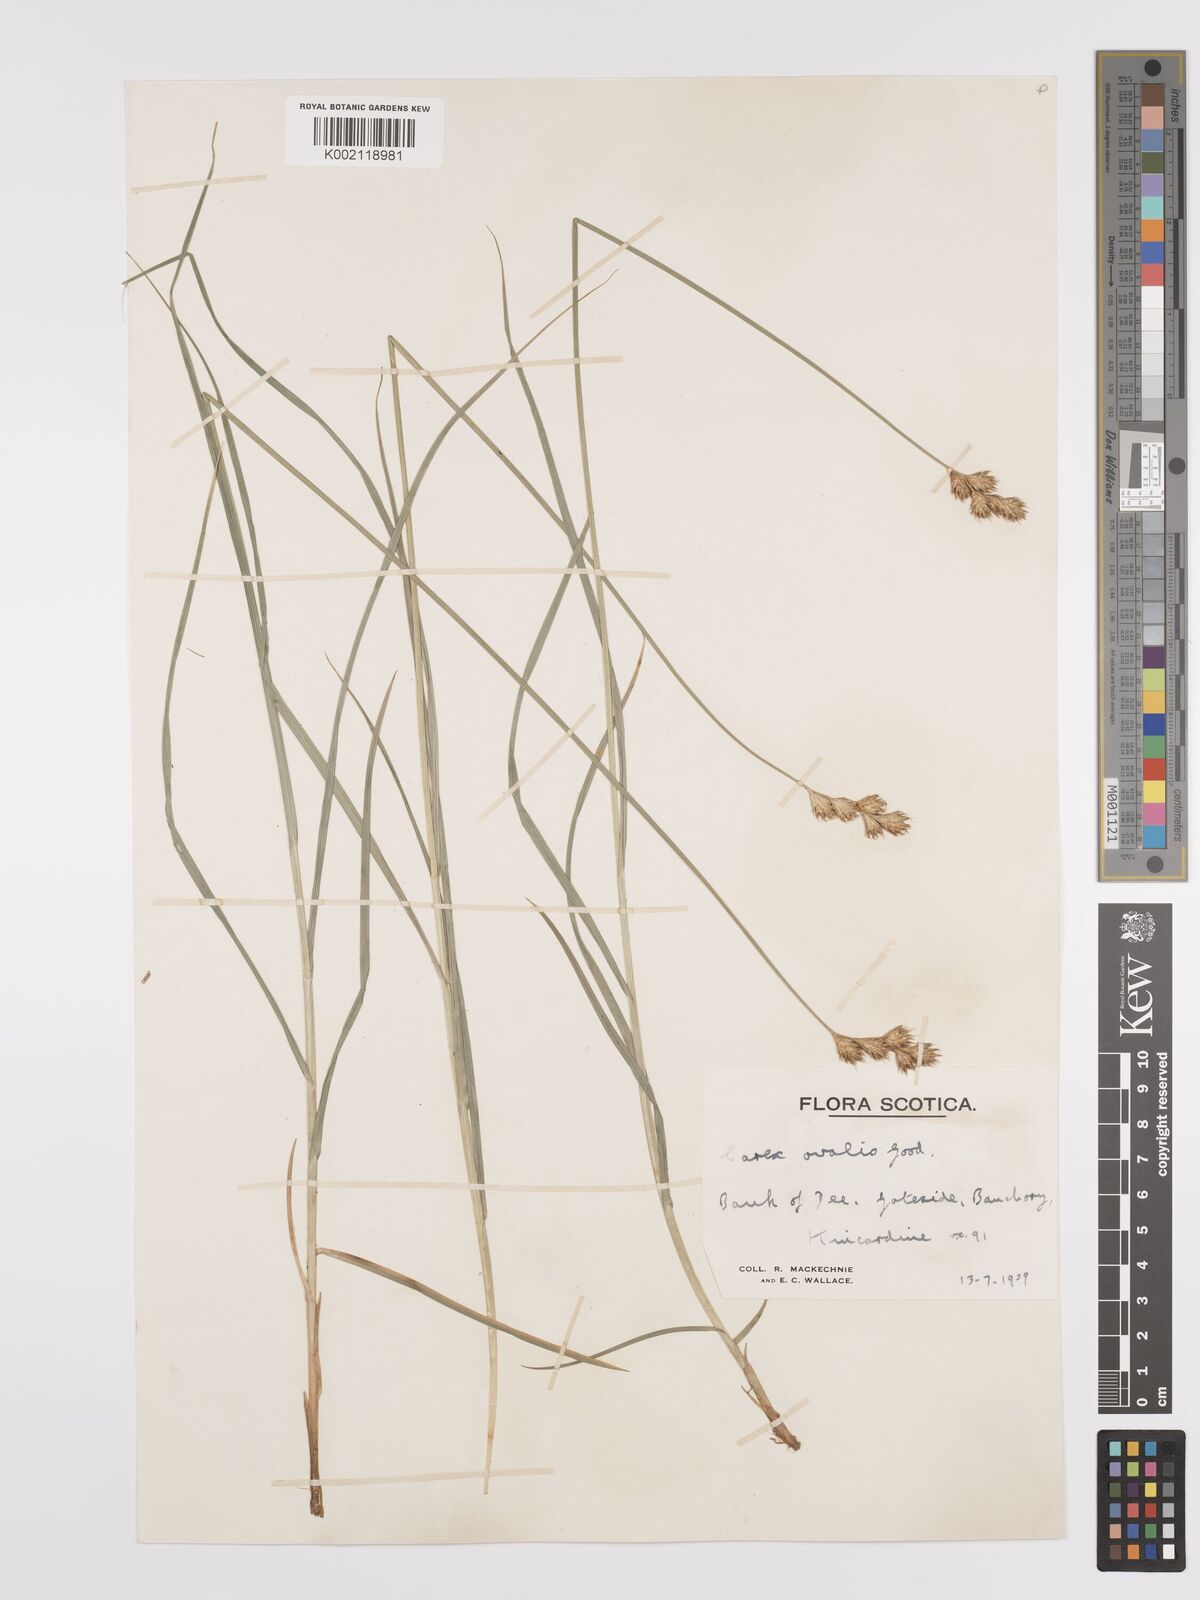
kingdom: Plantae
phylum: Tracheophyta
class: Liliopsida
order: Poales
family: Cyperaceae
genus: Carex
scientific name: Carex leporina
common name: Oval sedge
